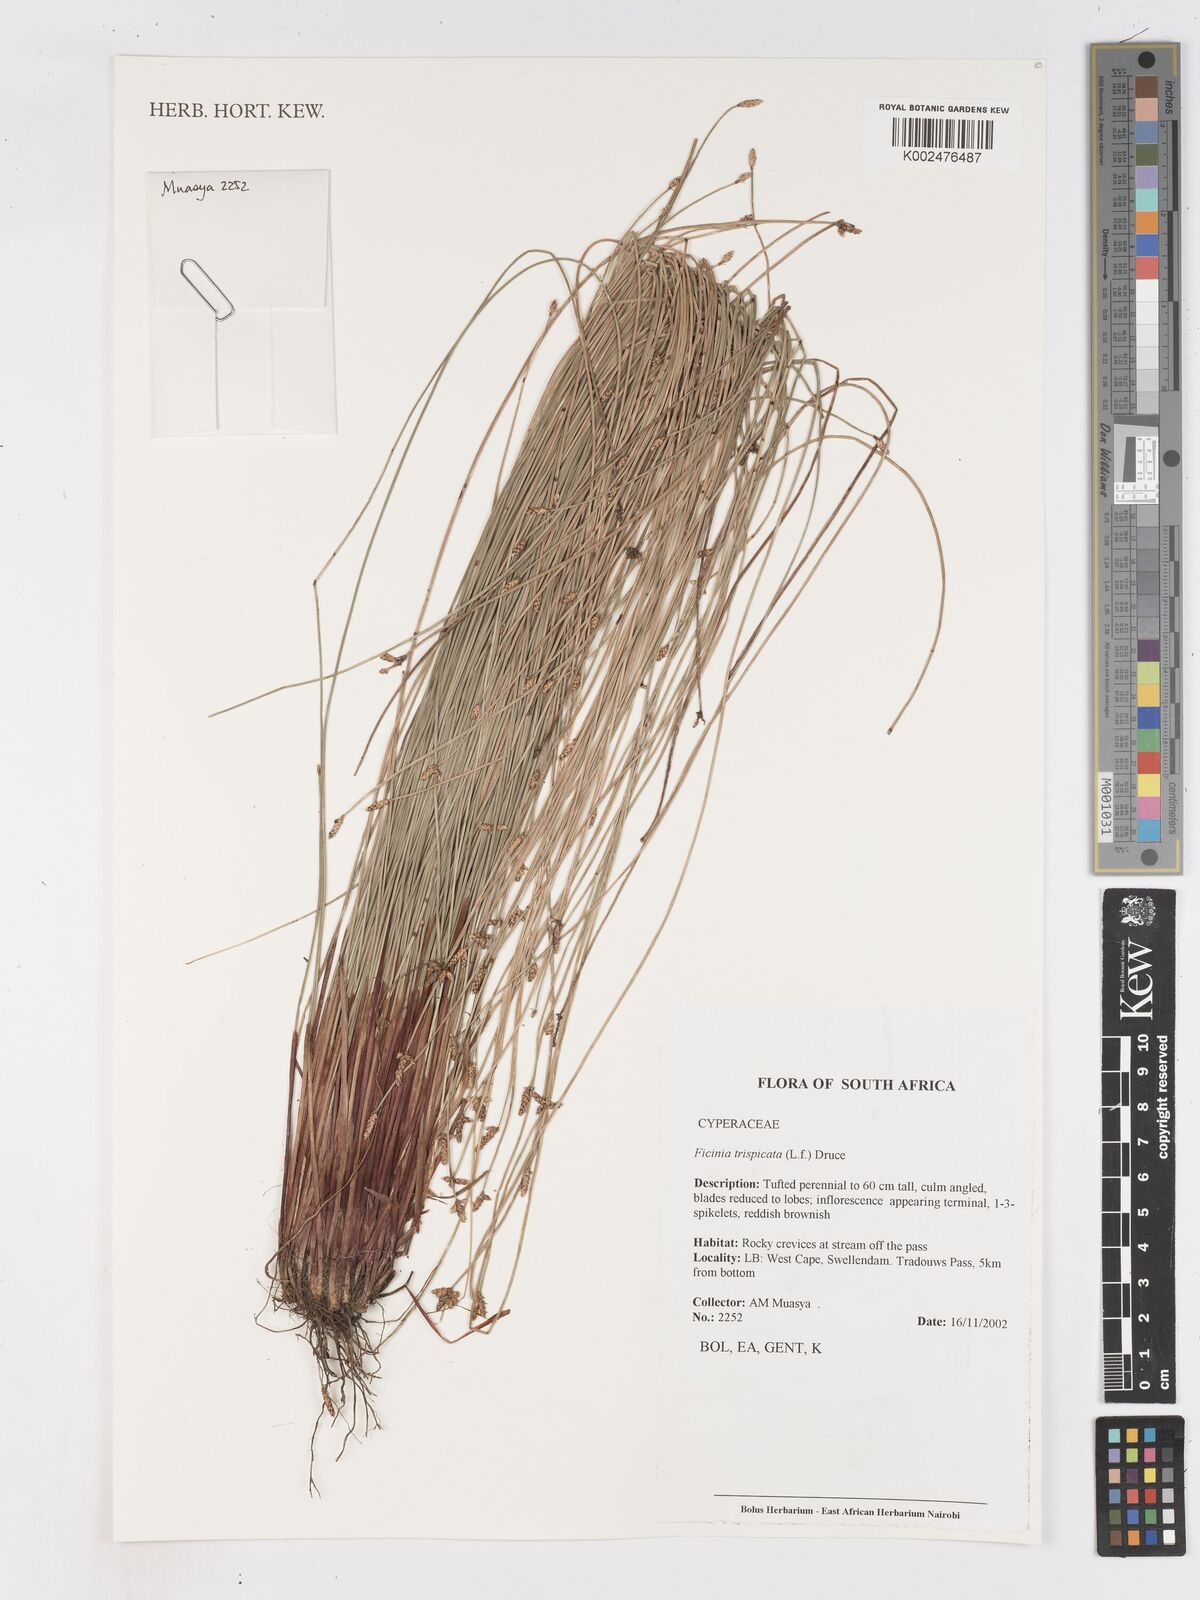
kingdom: Plantae
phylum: Tracheophyta
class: Liliopsida
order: Poales
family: Cyperaceae
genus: Ficinia
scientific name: Ficinia sylvatica
